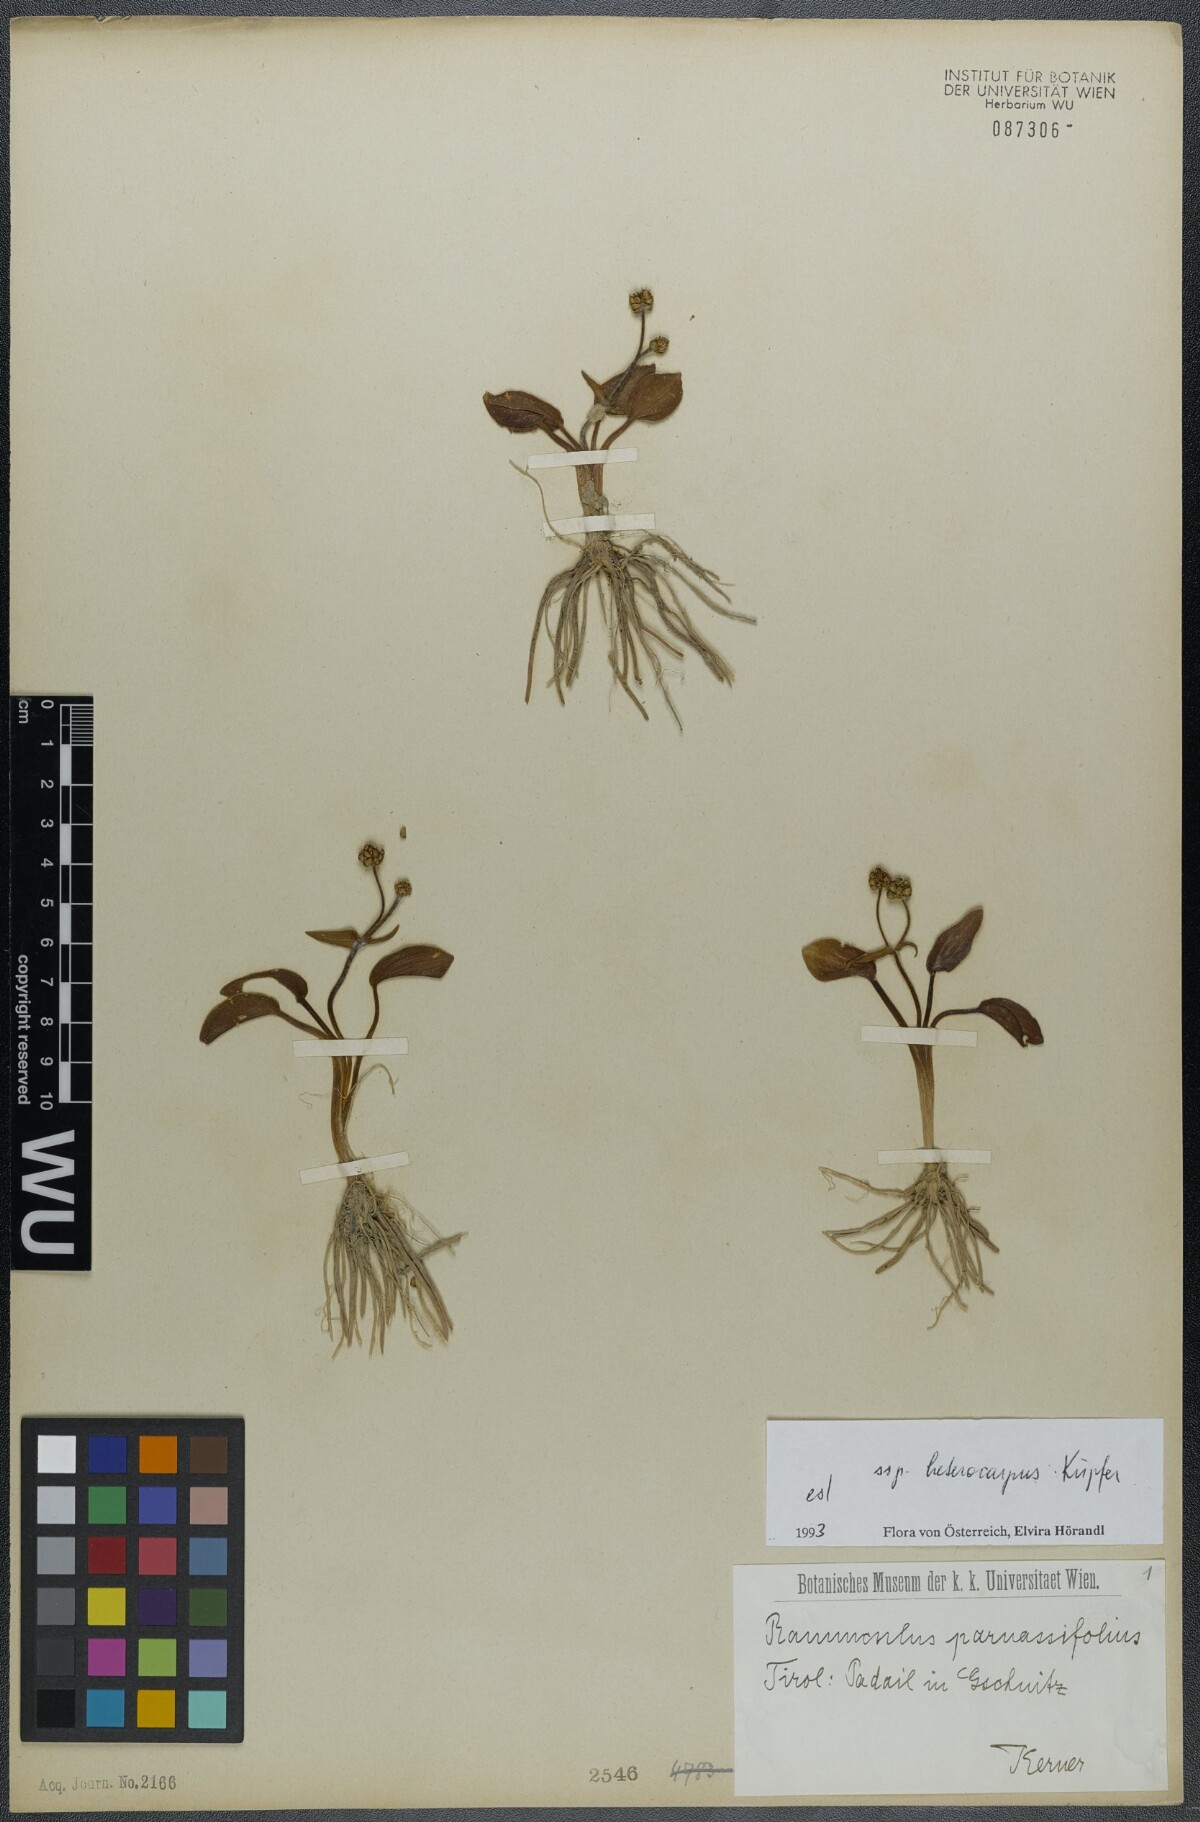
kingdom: Plantae
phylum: Tracheophyta
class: Magnoliopsida
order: Ranunculales
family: Ranunculaceae
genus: Ranunculus
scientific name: Ranunculus parnassiifolius
